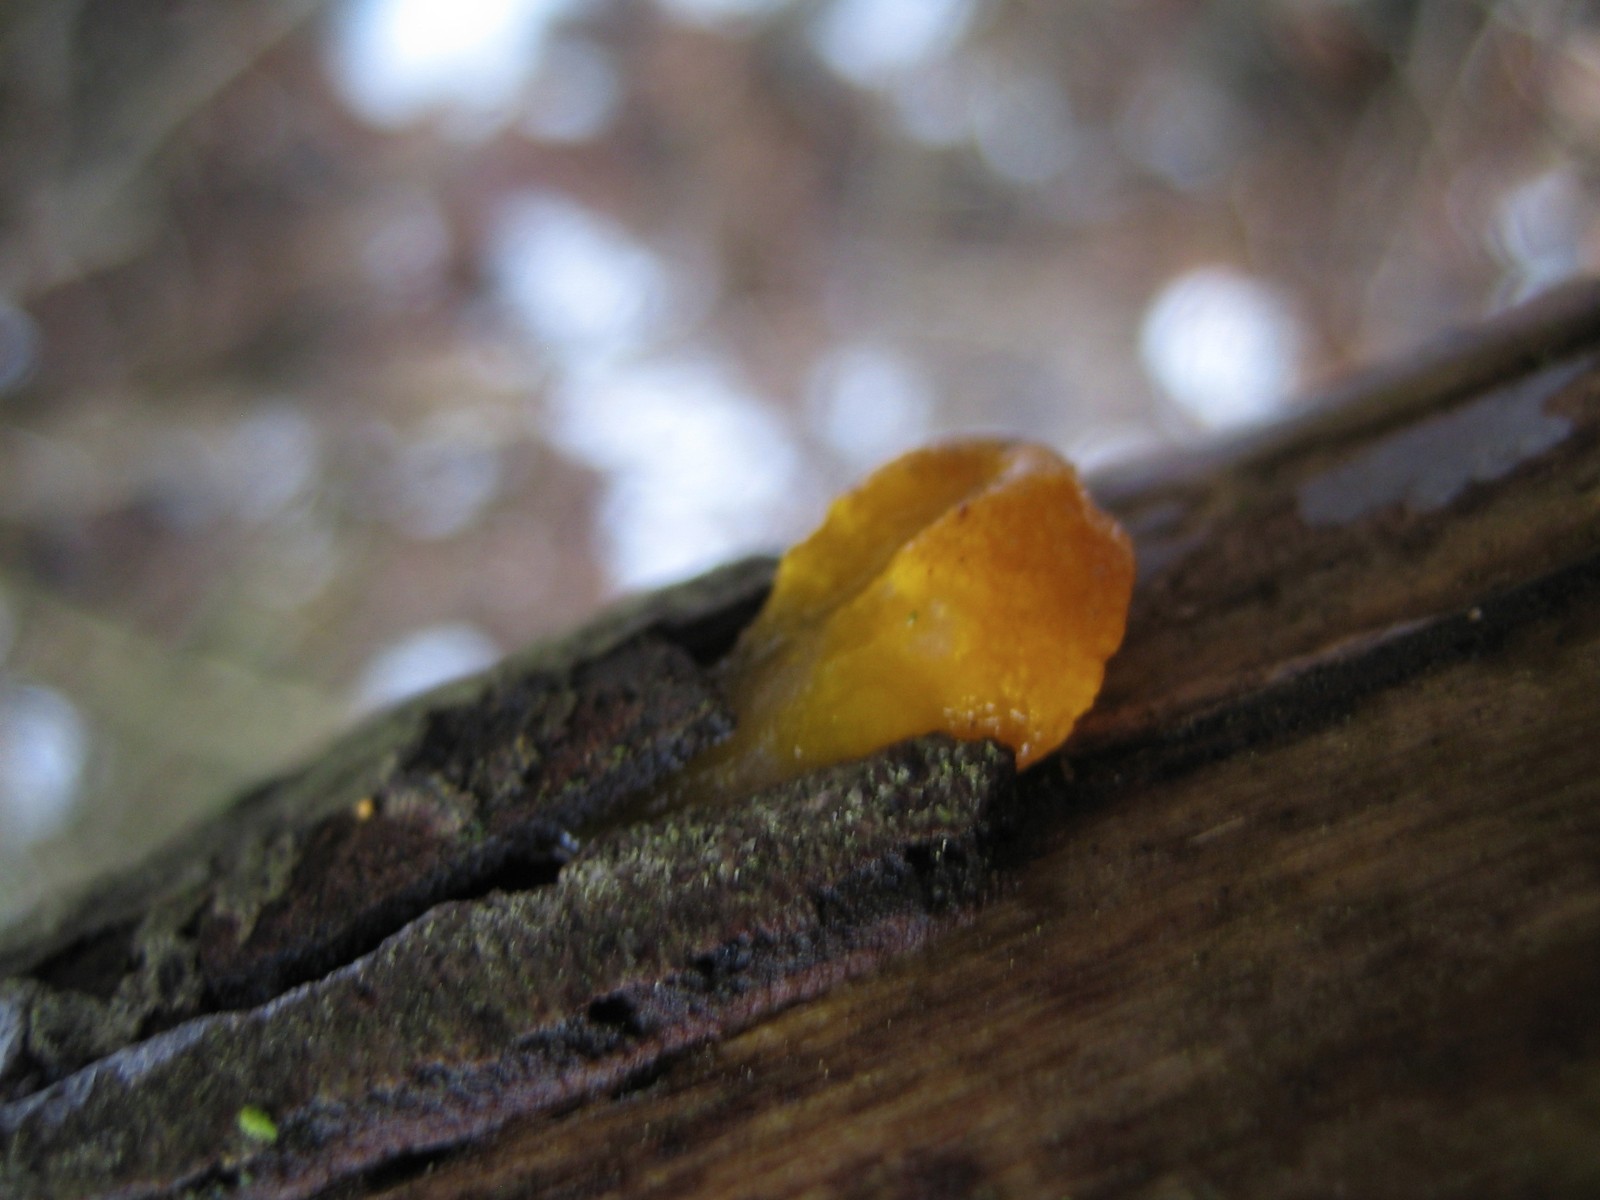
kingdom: Fungi
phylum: Basidiomycota
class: Tremellomycetes
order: Tremellales
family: Tremellaceae
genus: Tremella
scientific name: Tremella mesenterica
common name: gul bævresvamp
